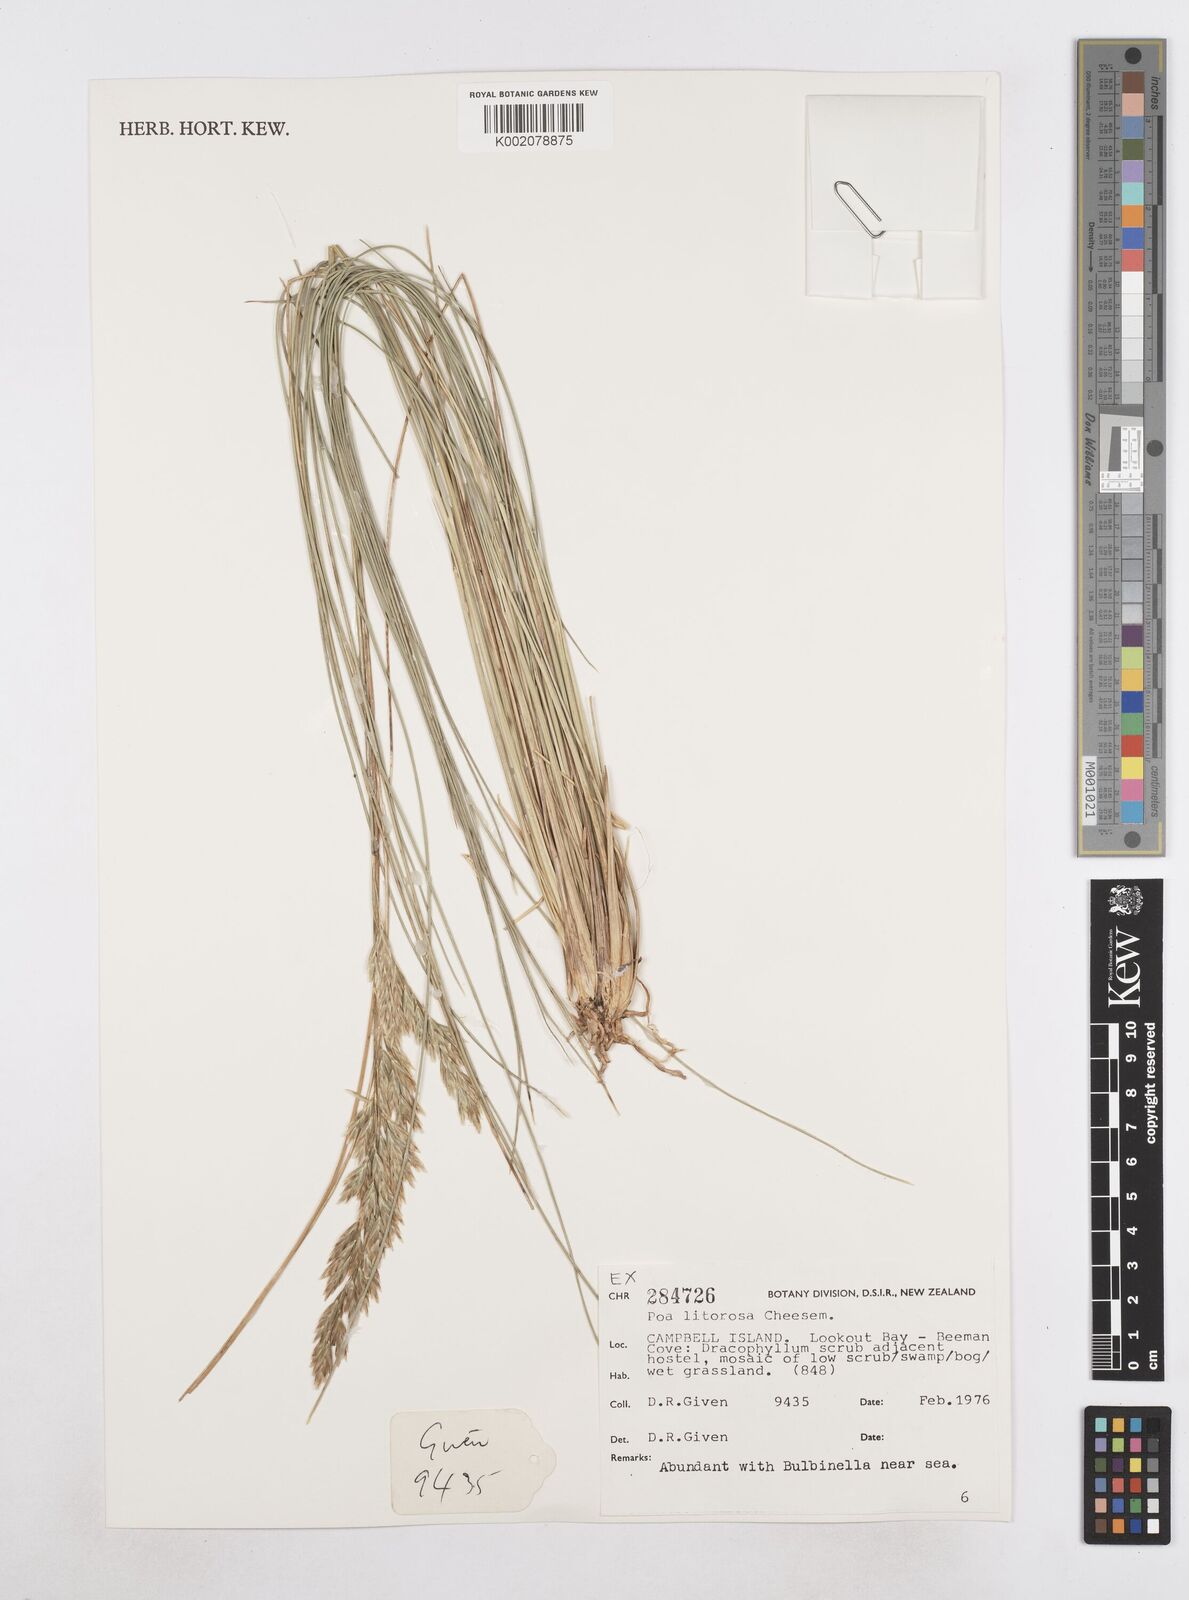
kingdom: Plantae
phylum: Tracheophyta
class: Liliopsida
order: Poales
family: Poaceae
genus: Poa
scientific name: Poa litorosa
